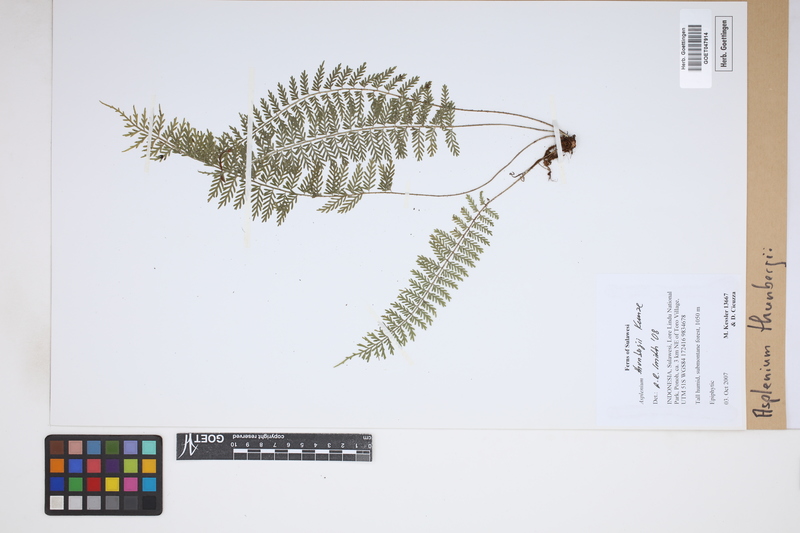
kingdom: Plantae
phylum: Tracheophyta
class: Polypodiopsida
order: Polypodiales
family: Aspleniaceae
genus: Asplenium
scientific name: Asplenium thunbergii
